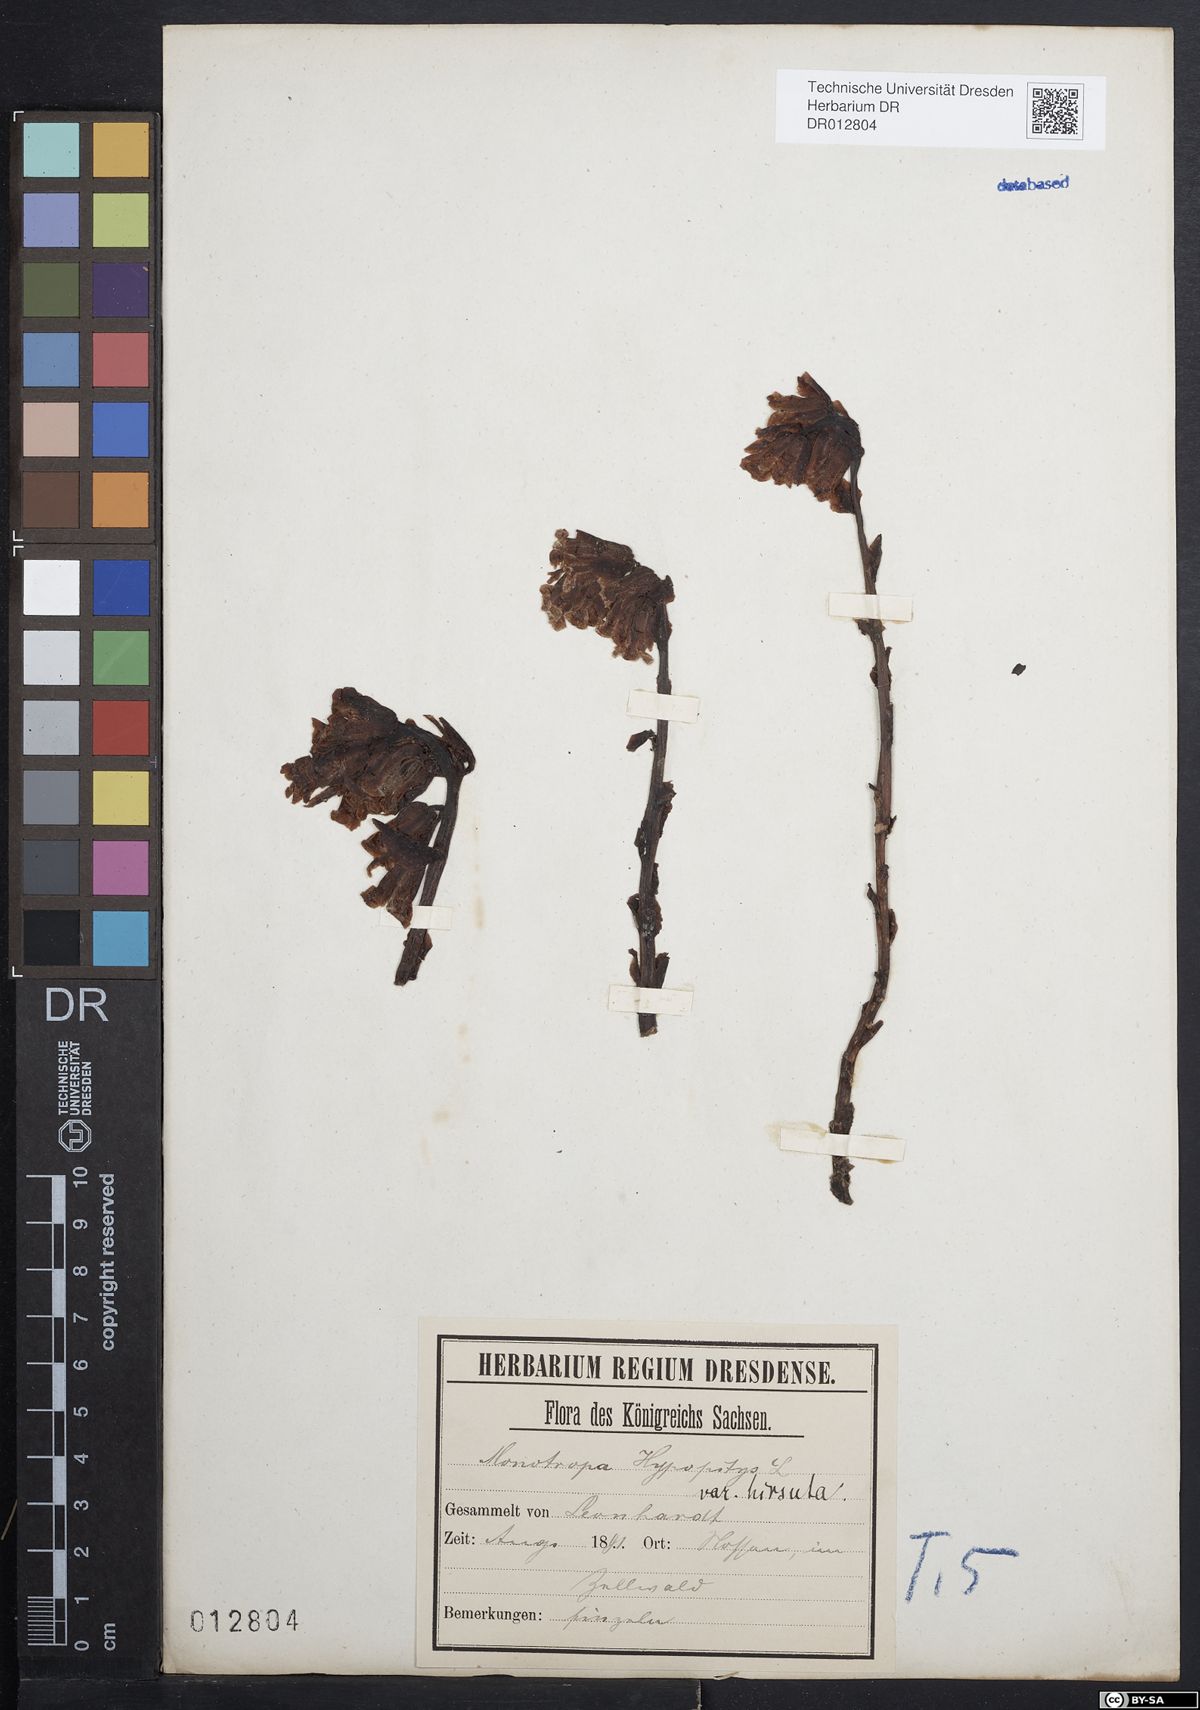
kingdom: Plantae
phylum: Tracheophyta
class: Magnoliopsida
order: Ericales
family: Ericaceae
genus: Hypopitys
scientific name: Hypopitys monotropa
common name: Yellow bird's-nest
